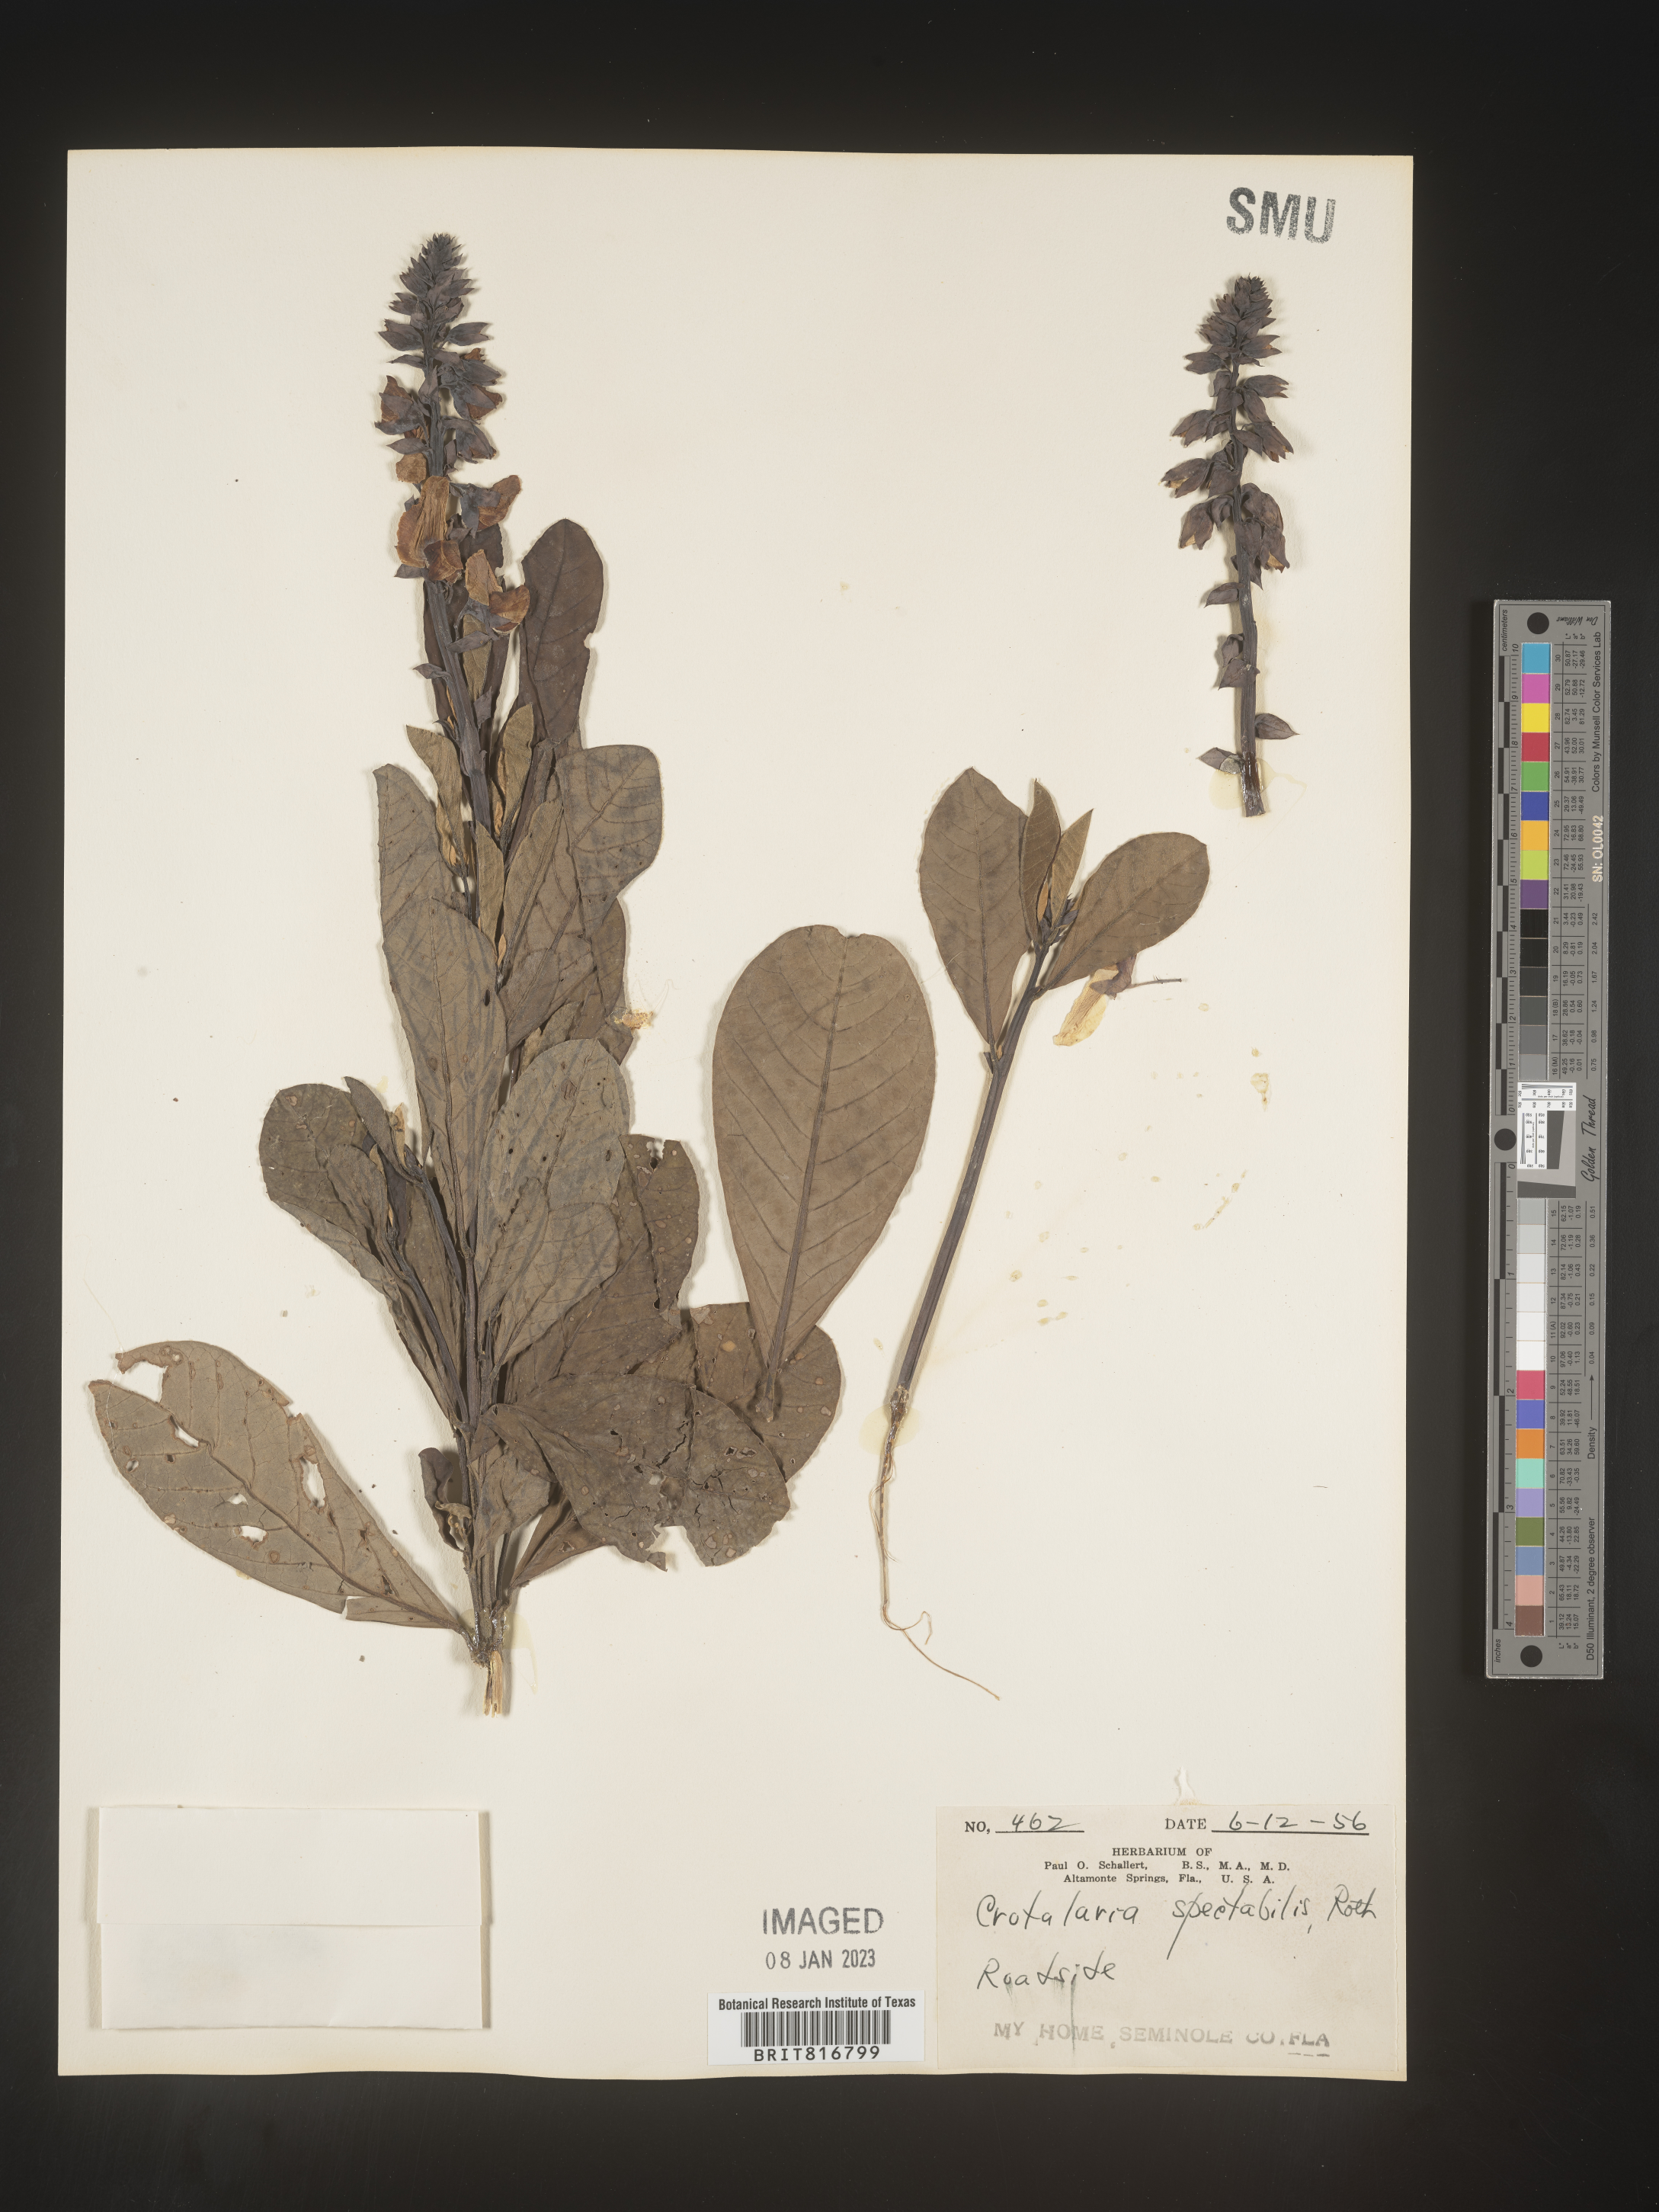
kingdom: Plantae
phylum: Tracheophyta
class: Magnoliopsida
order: Fabales
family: Fabaceae
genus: Crotalaria
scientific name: Crotalaria spectabilis
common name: Showy rattlebox
